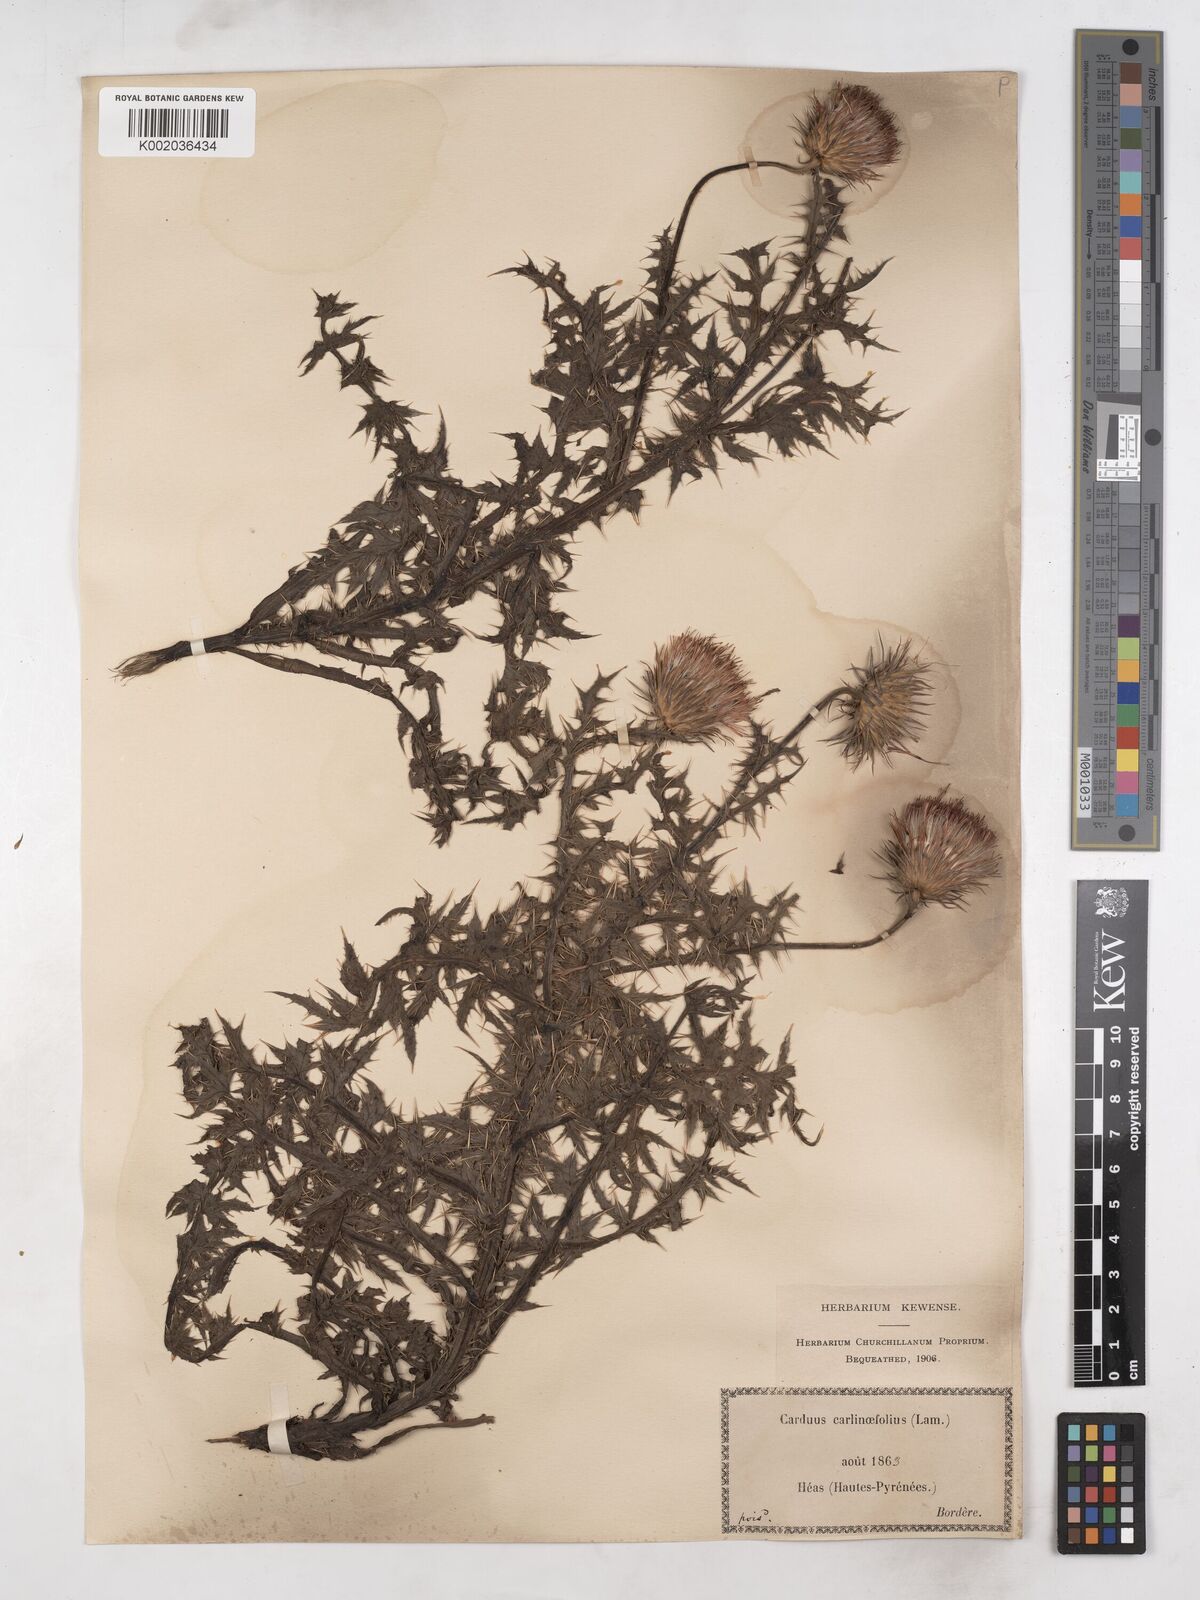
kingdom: Plantae
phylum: Tracheophyta
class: Magnoliopsida
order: Asterales
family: Asteraceae
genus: Carduus
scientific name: Carduus carlinifolius
